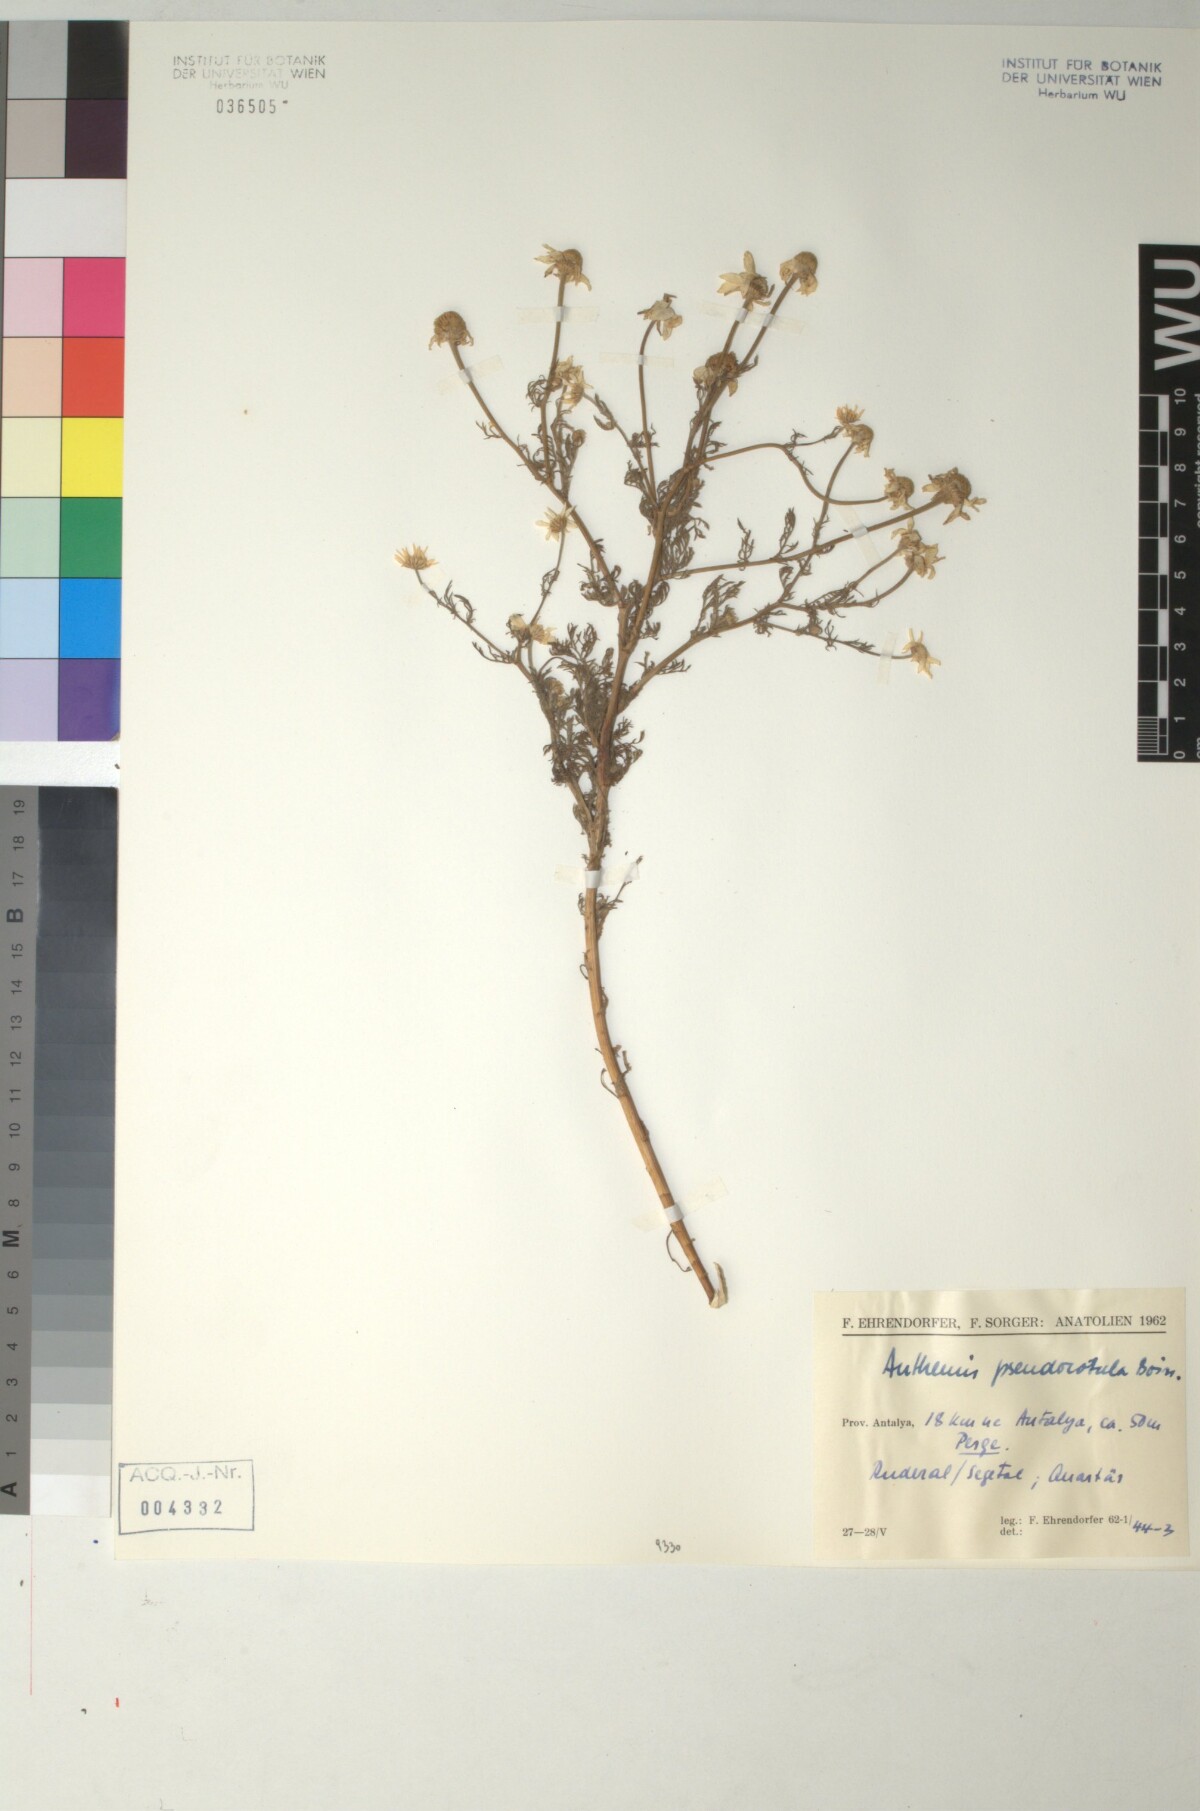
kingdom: Plantae
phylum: Tracheophyta
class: Magnoliopsida
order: Asterales
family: Asteraceae
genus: Anthemis
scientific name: Anthemis pseudocotula
